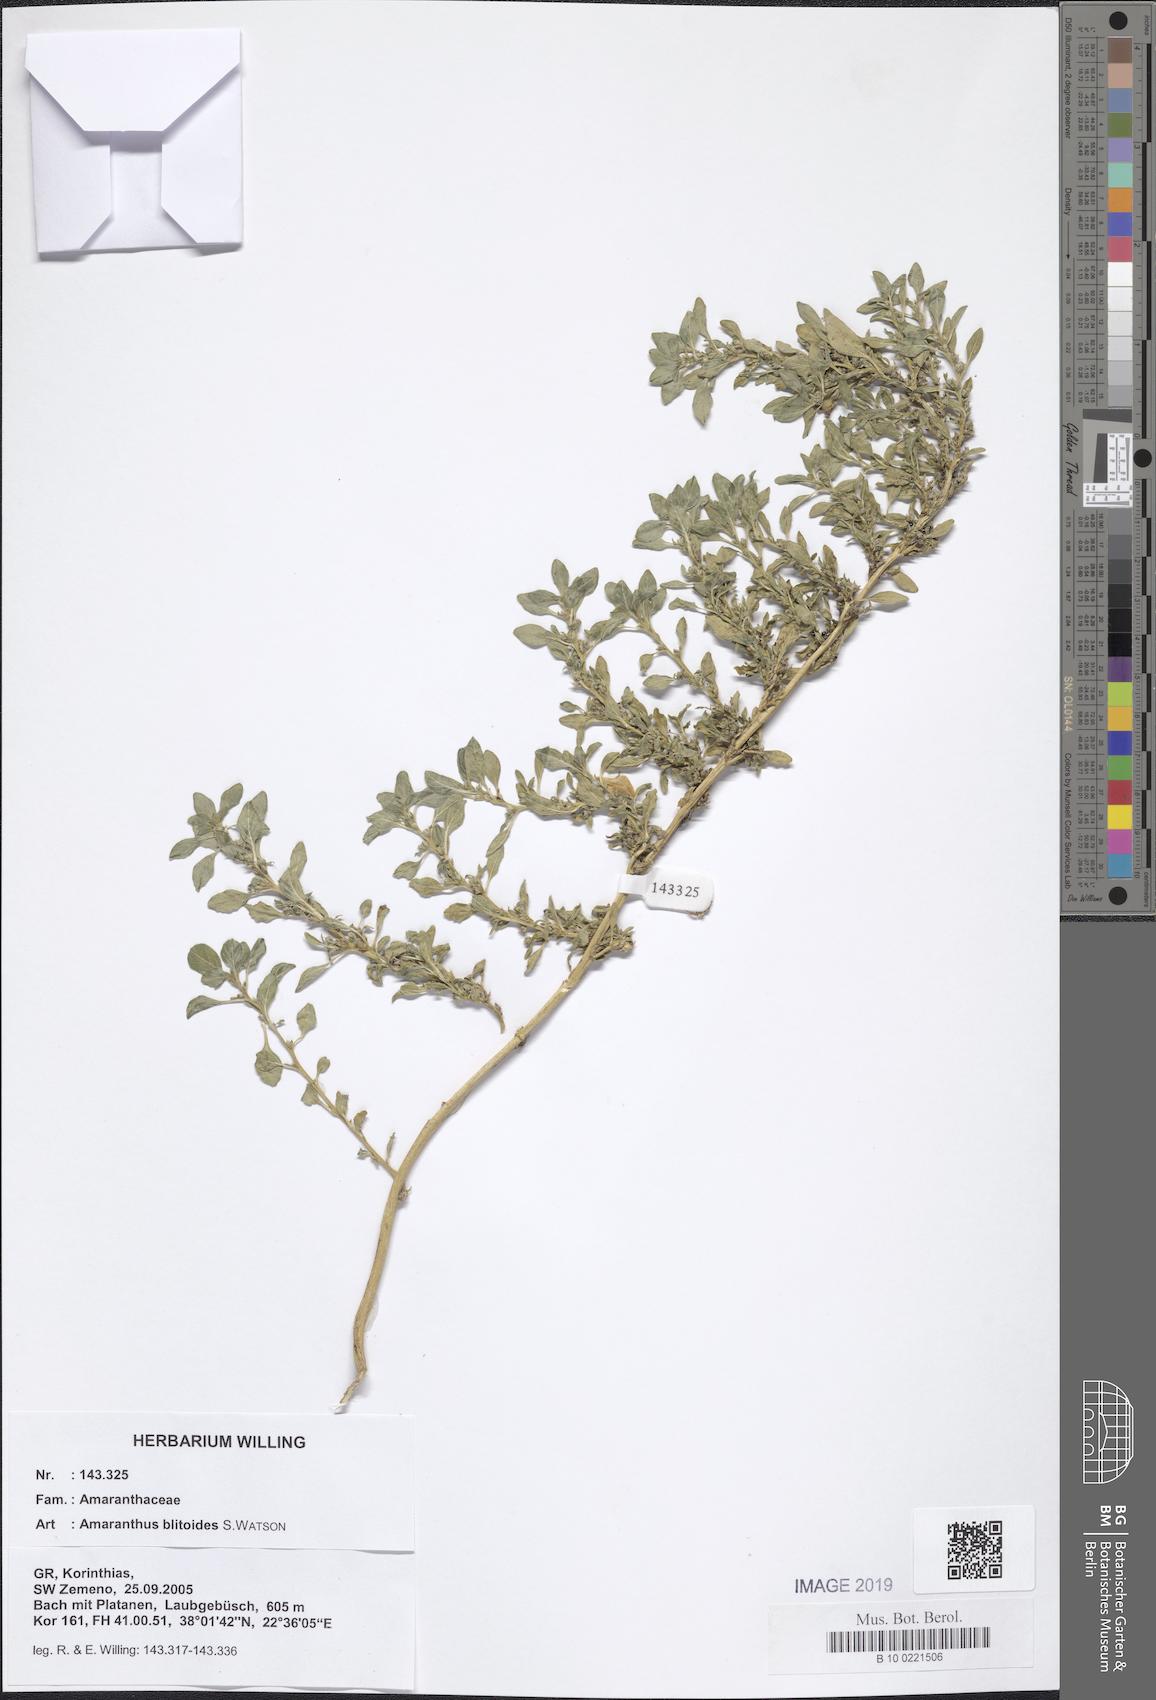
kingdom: Plantae
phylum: Tracheophyta
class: Magnoliopsida
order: Caryophyllales
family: Amaranthaceae
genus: Amaranthus
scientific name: Amaranthus blitoides
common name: Prostrate pigweed
